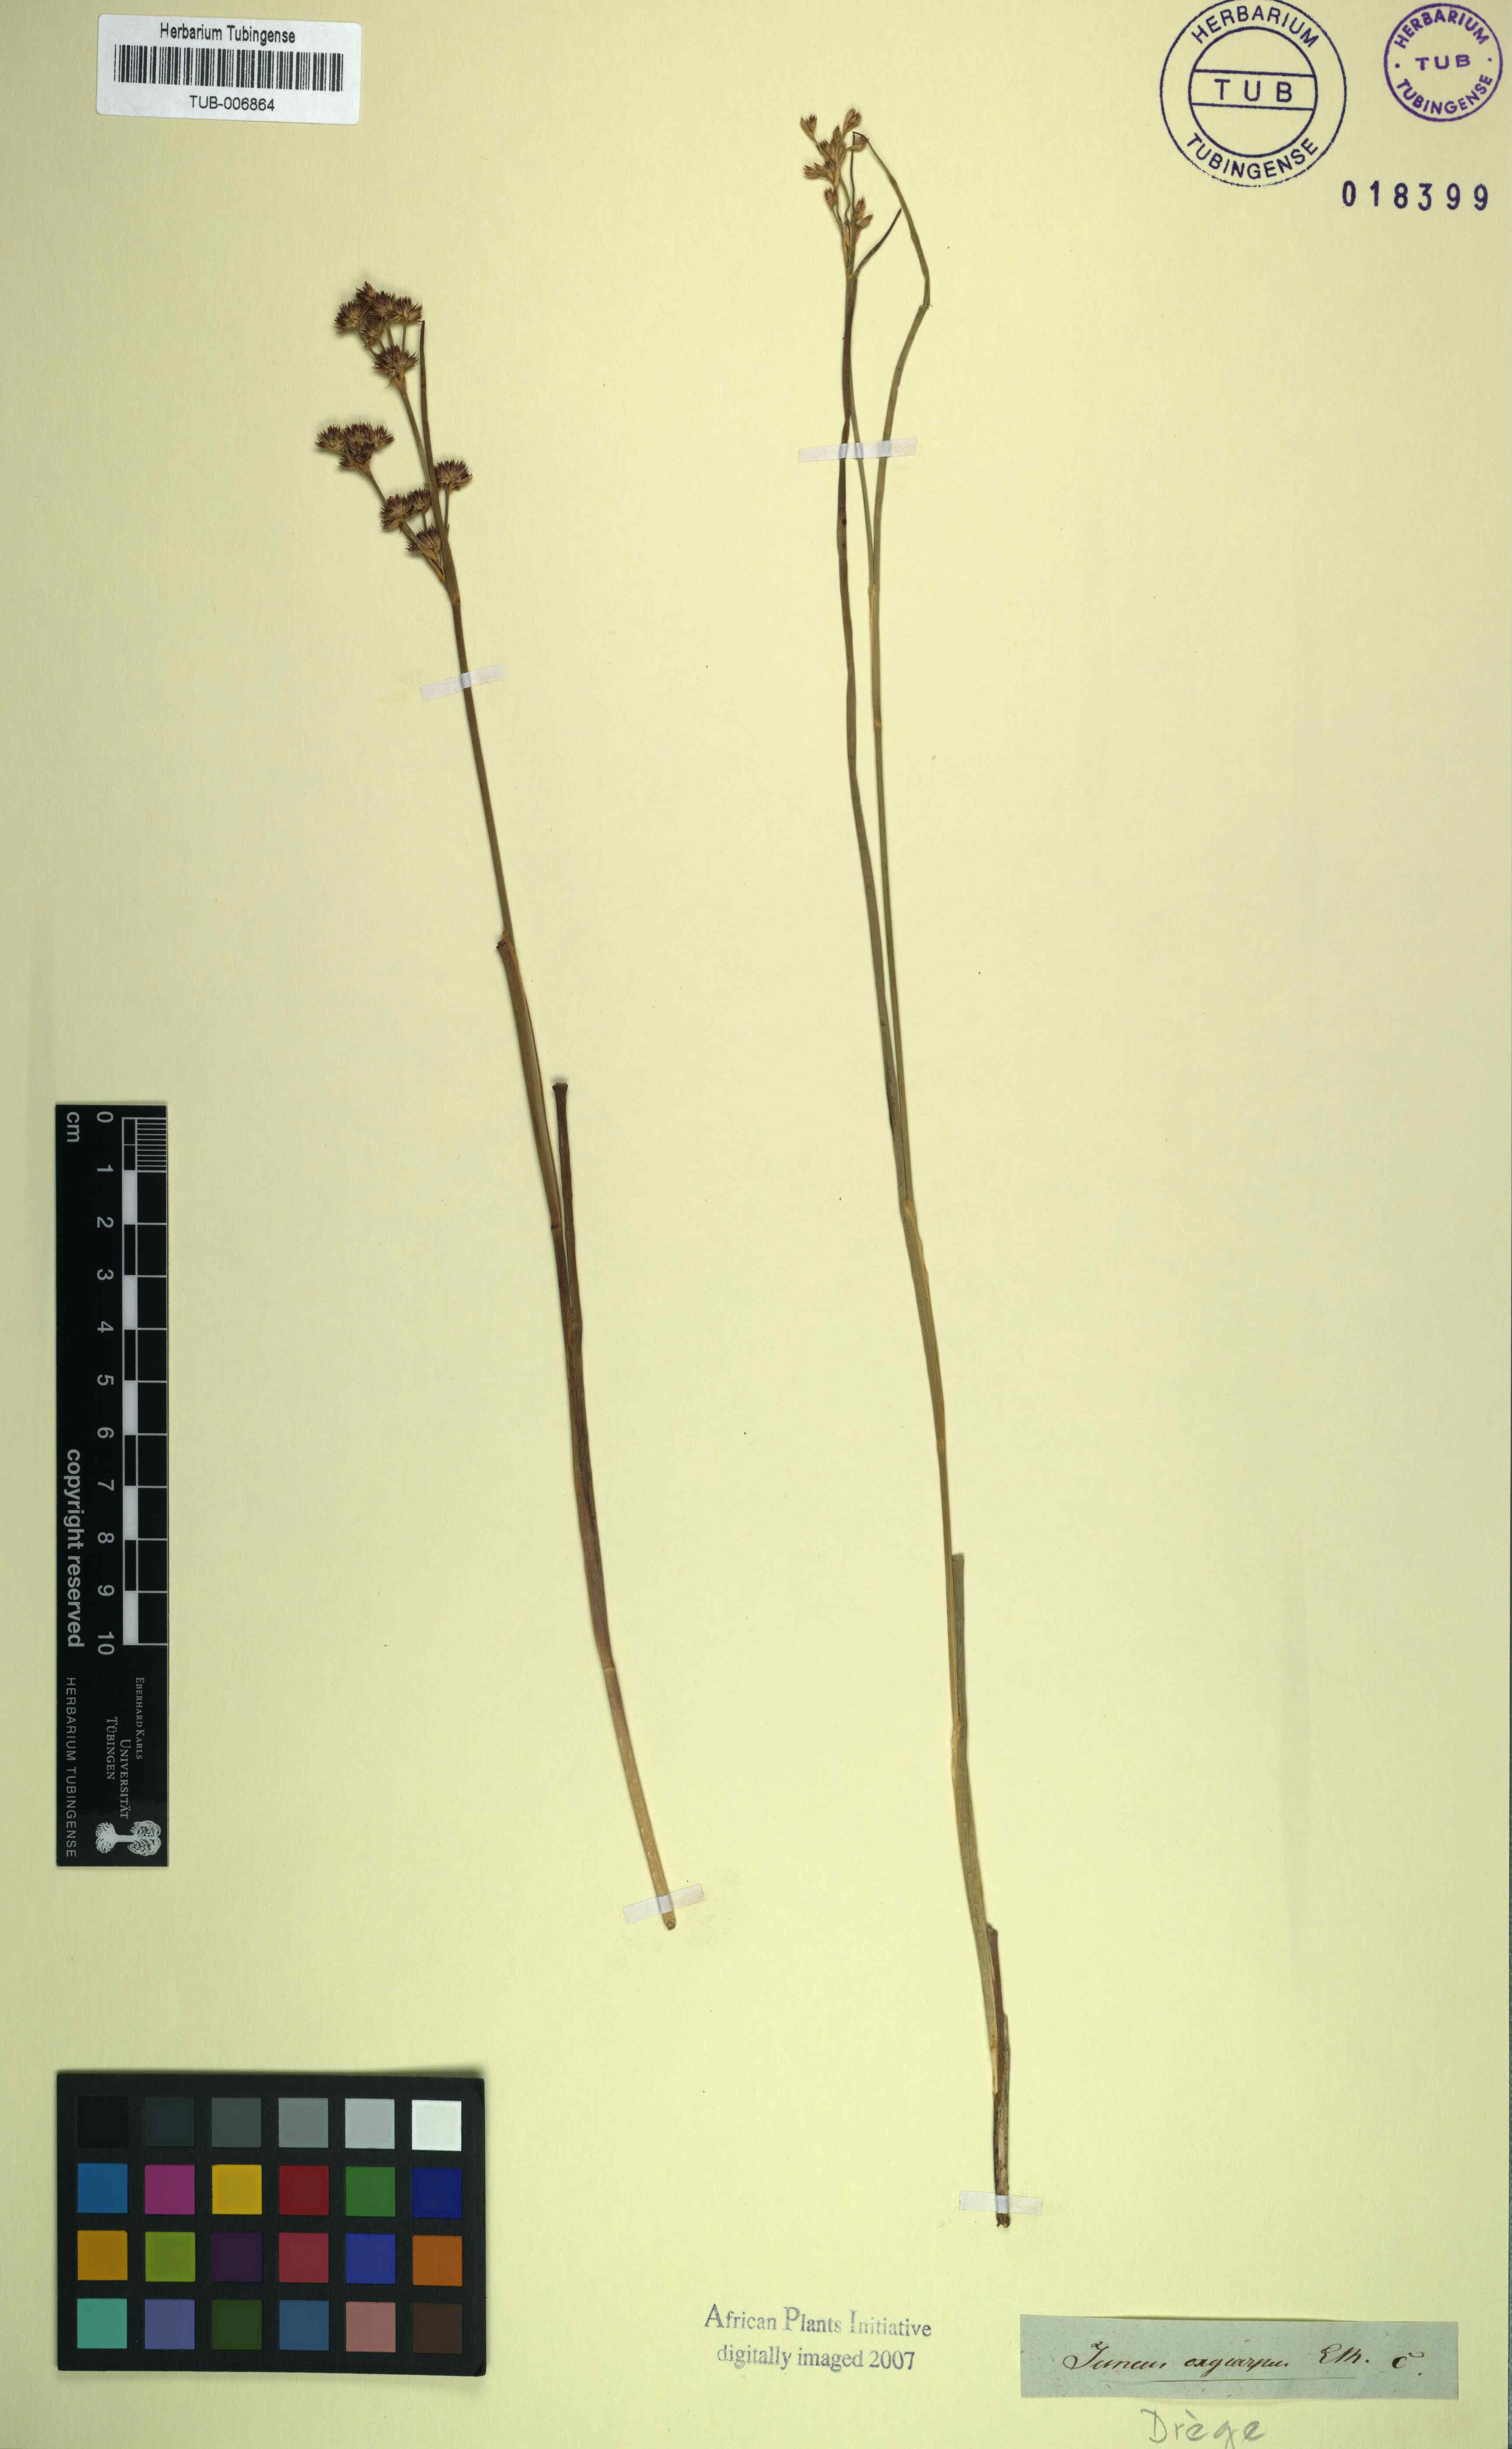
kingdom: Plantae
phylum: Tracheophyta
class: Liliopsida
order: Poales
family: Juncaceae
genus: Juncus
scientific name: Juncus punctorius
